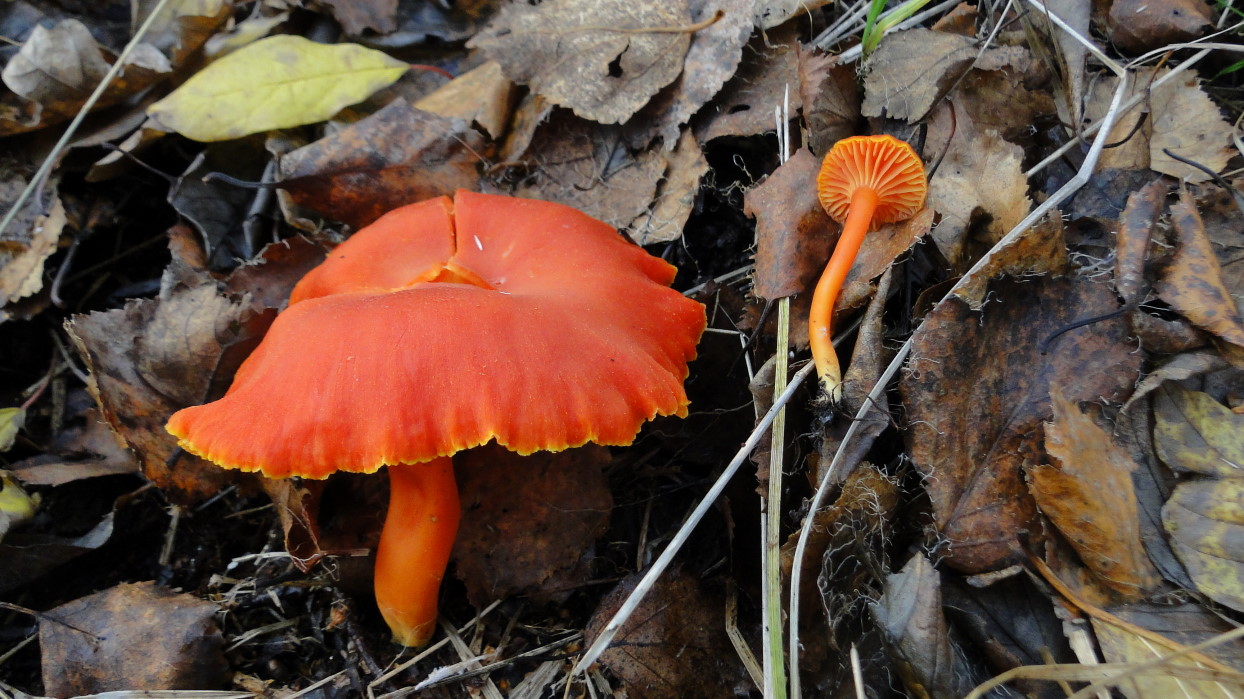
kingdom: Fungi
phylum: Basidiomycota
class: Agaricomycetes
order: Agaricales
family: Hygrophoraceae
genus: Hygrocybe
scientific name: Hygrocybe miniata
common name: mønje-vokshat
